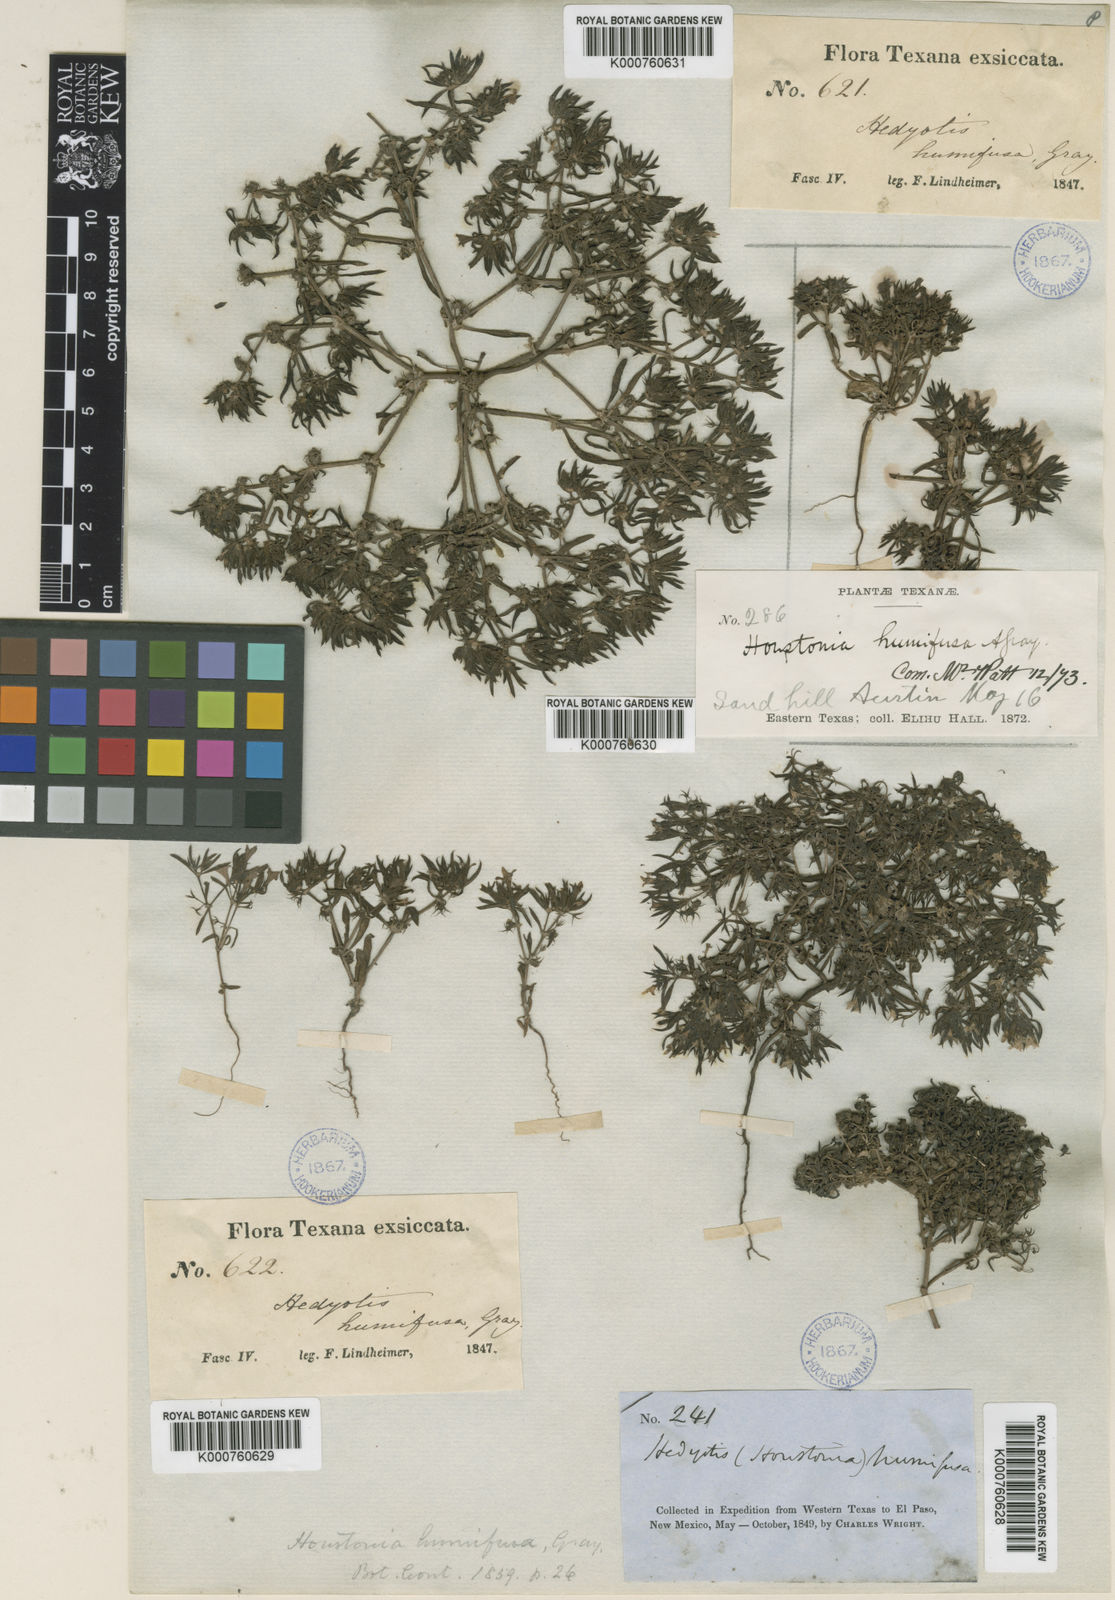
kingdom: Plantae
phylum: Tracheophyta
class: Magnoliopsida
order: Gentianales
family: Rubiaceae
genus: Houstonia
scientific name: Houstonia humifusa
